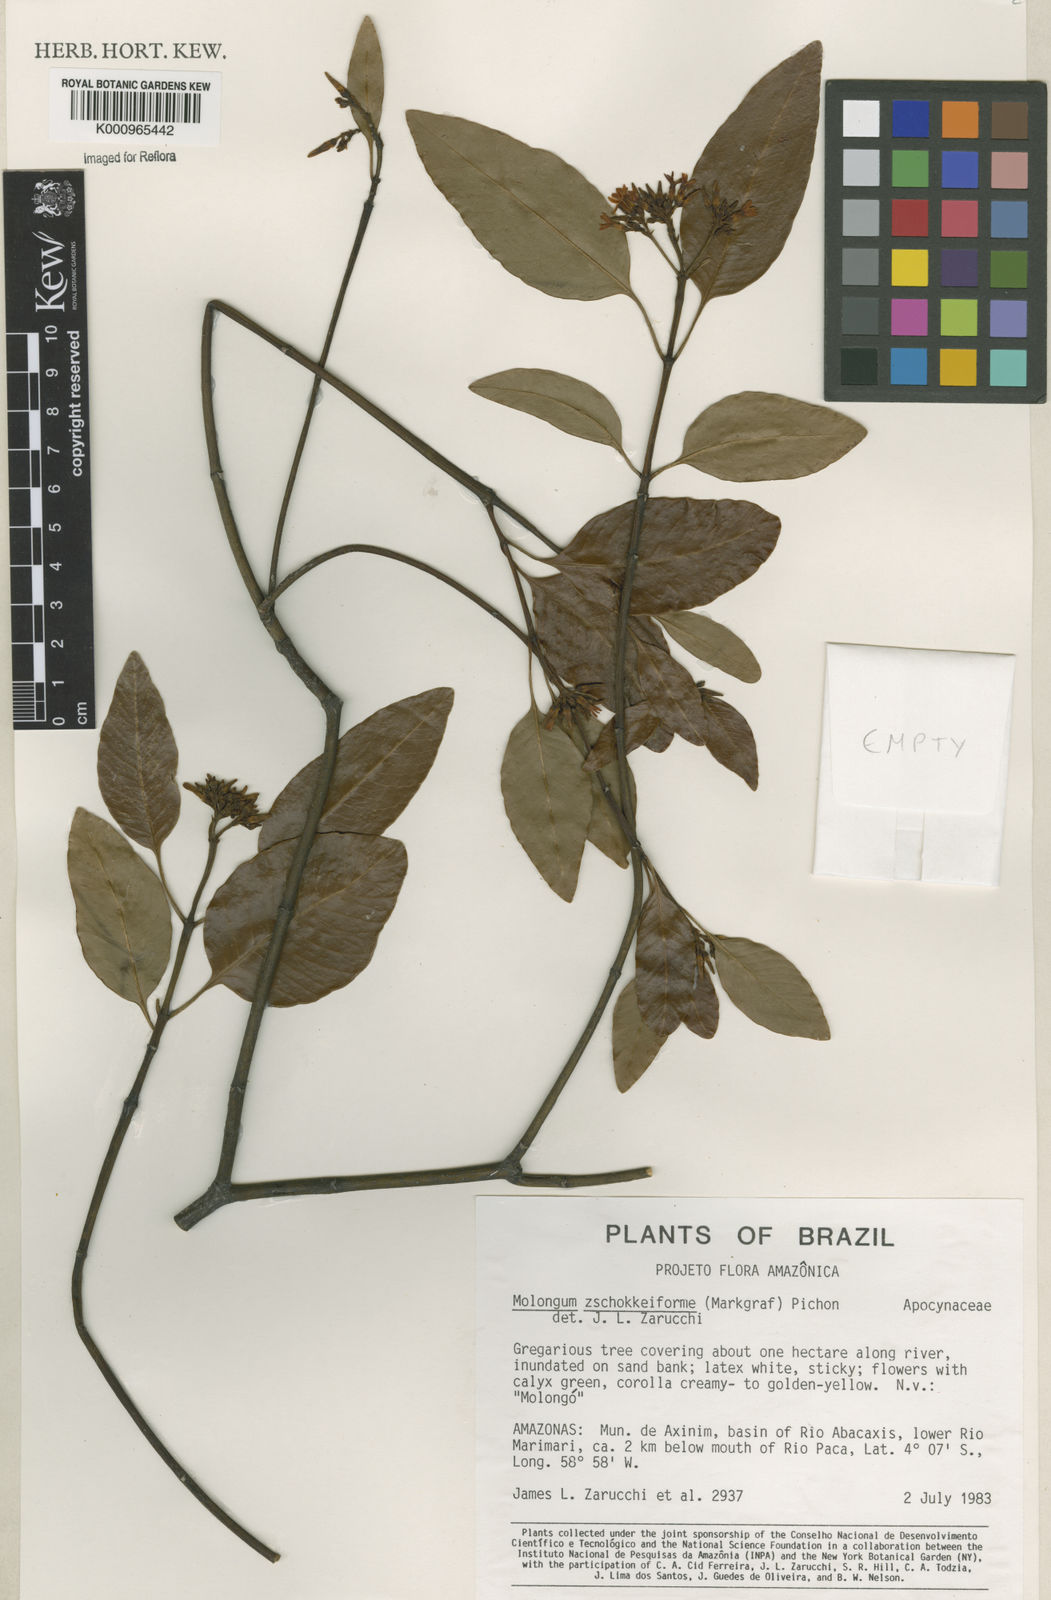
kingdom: Plantae
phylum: Tracheophyta
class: Magnoliopsida
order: Gentianales
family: Apocynaceae
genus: Molongum
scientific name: Molongum zschokkeiforme
